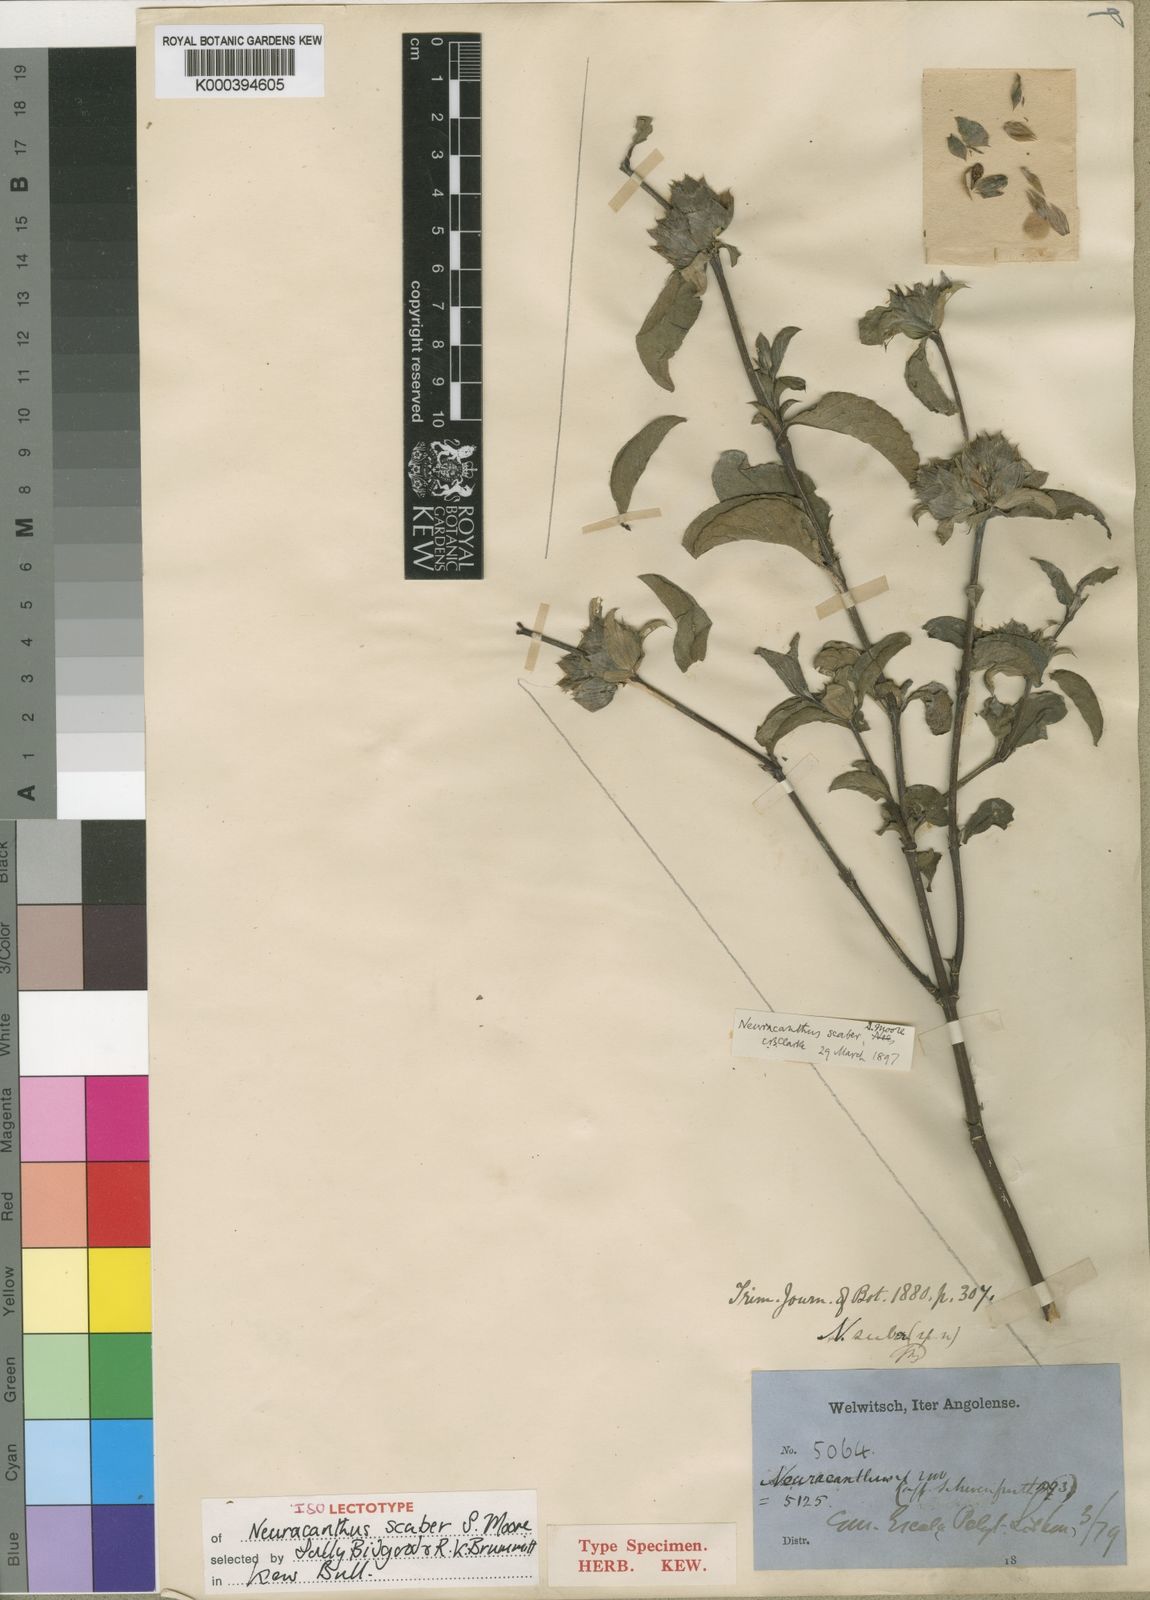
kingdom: Plantae
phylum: Tracheophyta
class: Magnoliopsida
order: Lamiales
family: Acanthaceae
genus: Neuracanthus
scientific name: Neuracanthus scaber
